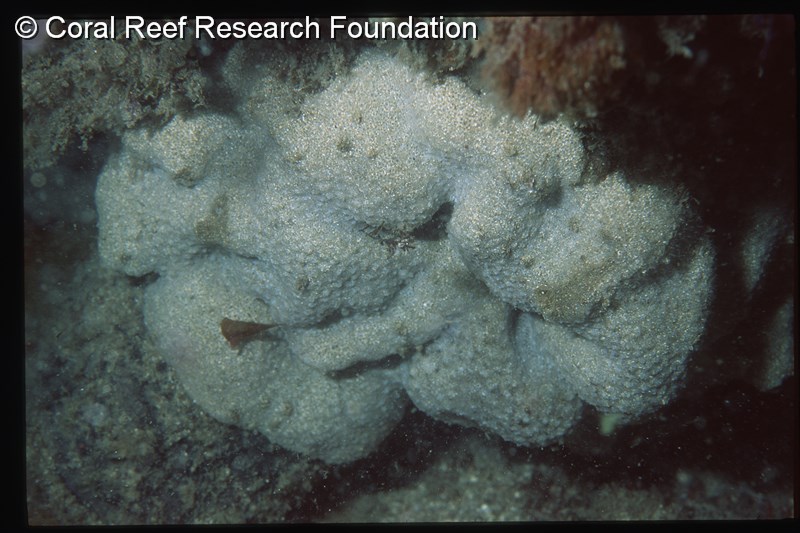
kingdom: Animalia
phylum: Chordata
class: Ascidiacea
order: Aplousobranchia
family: Polyclinidae
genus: Polyclinum
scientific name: Polyclinum isipingense
